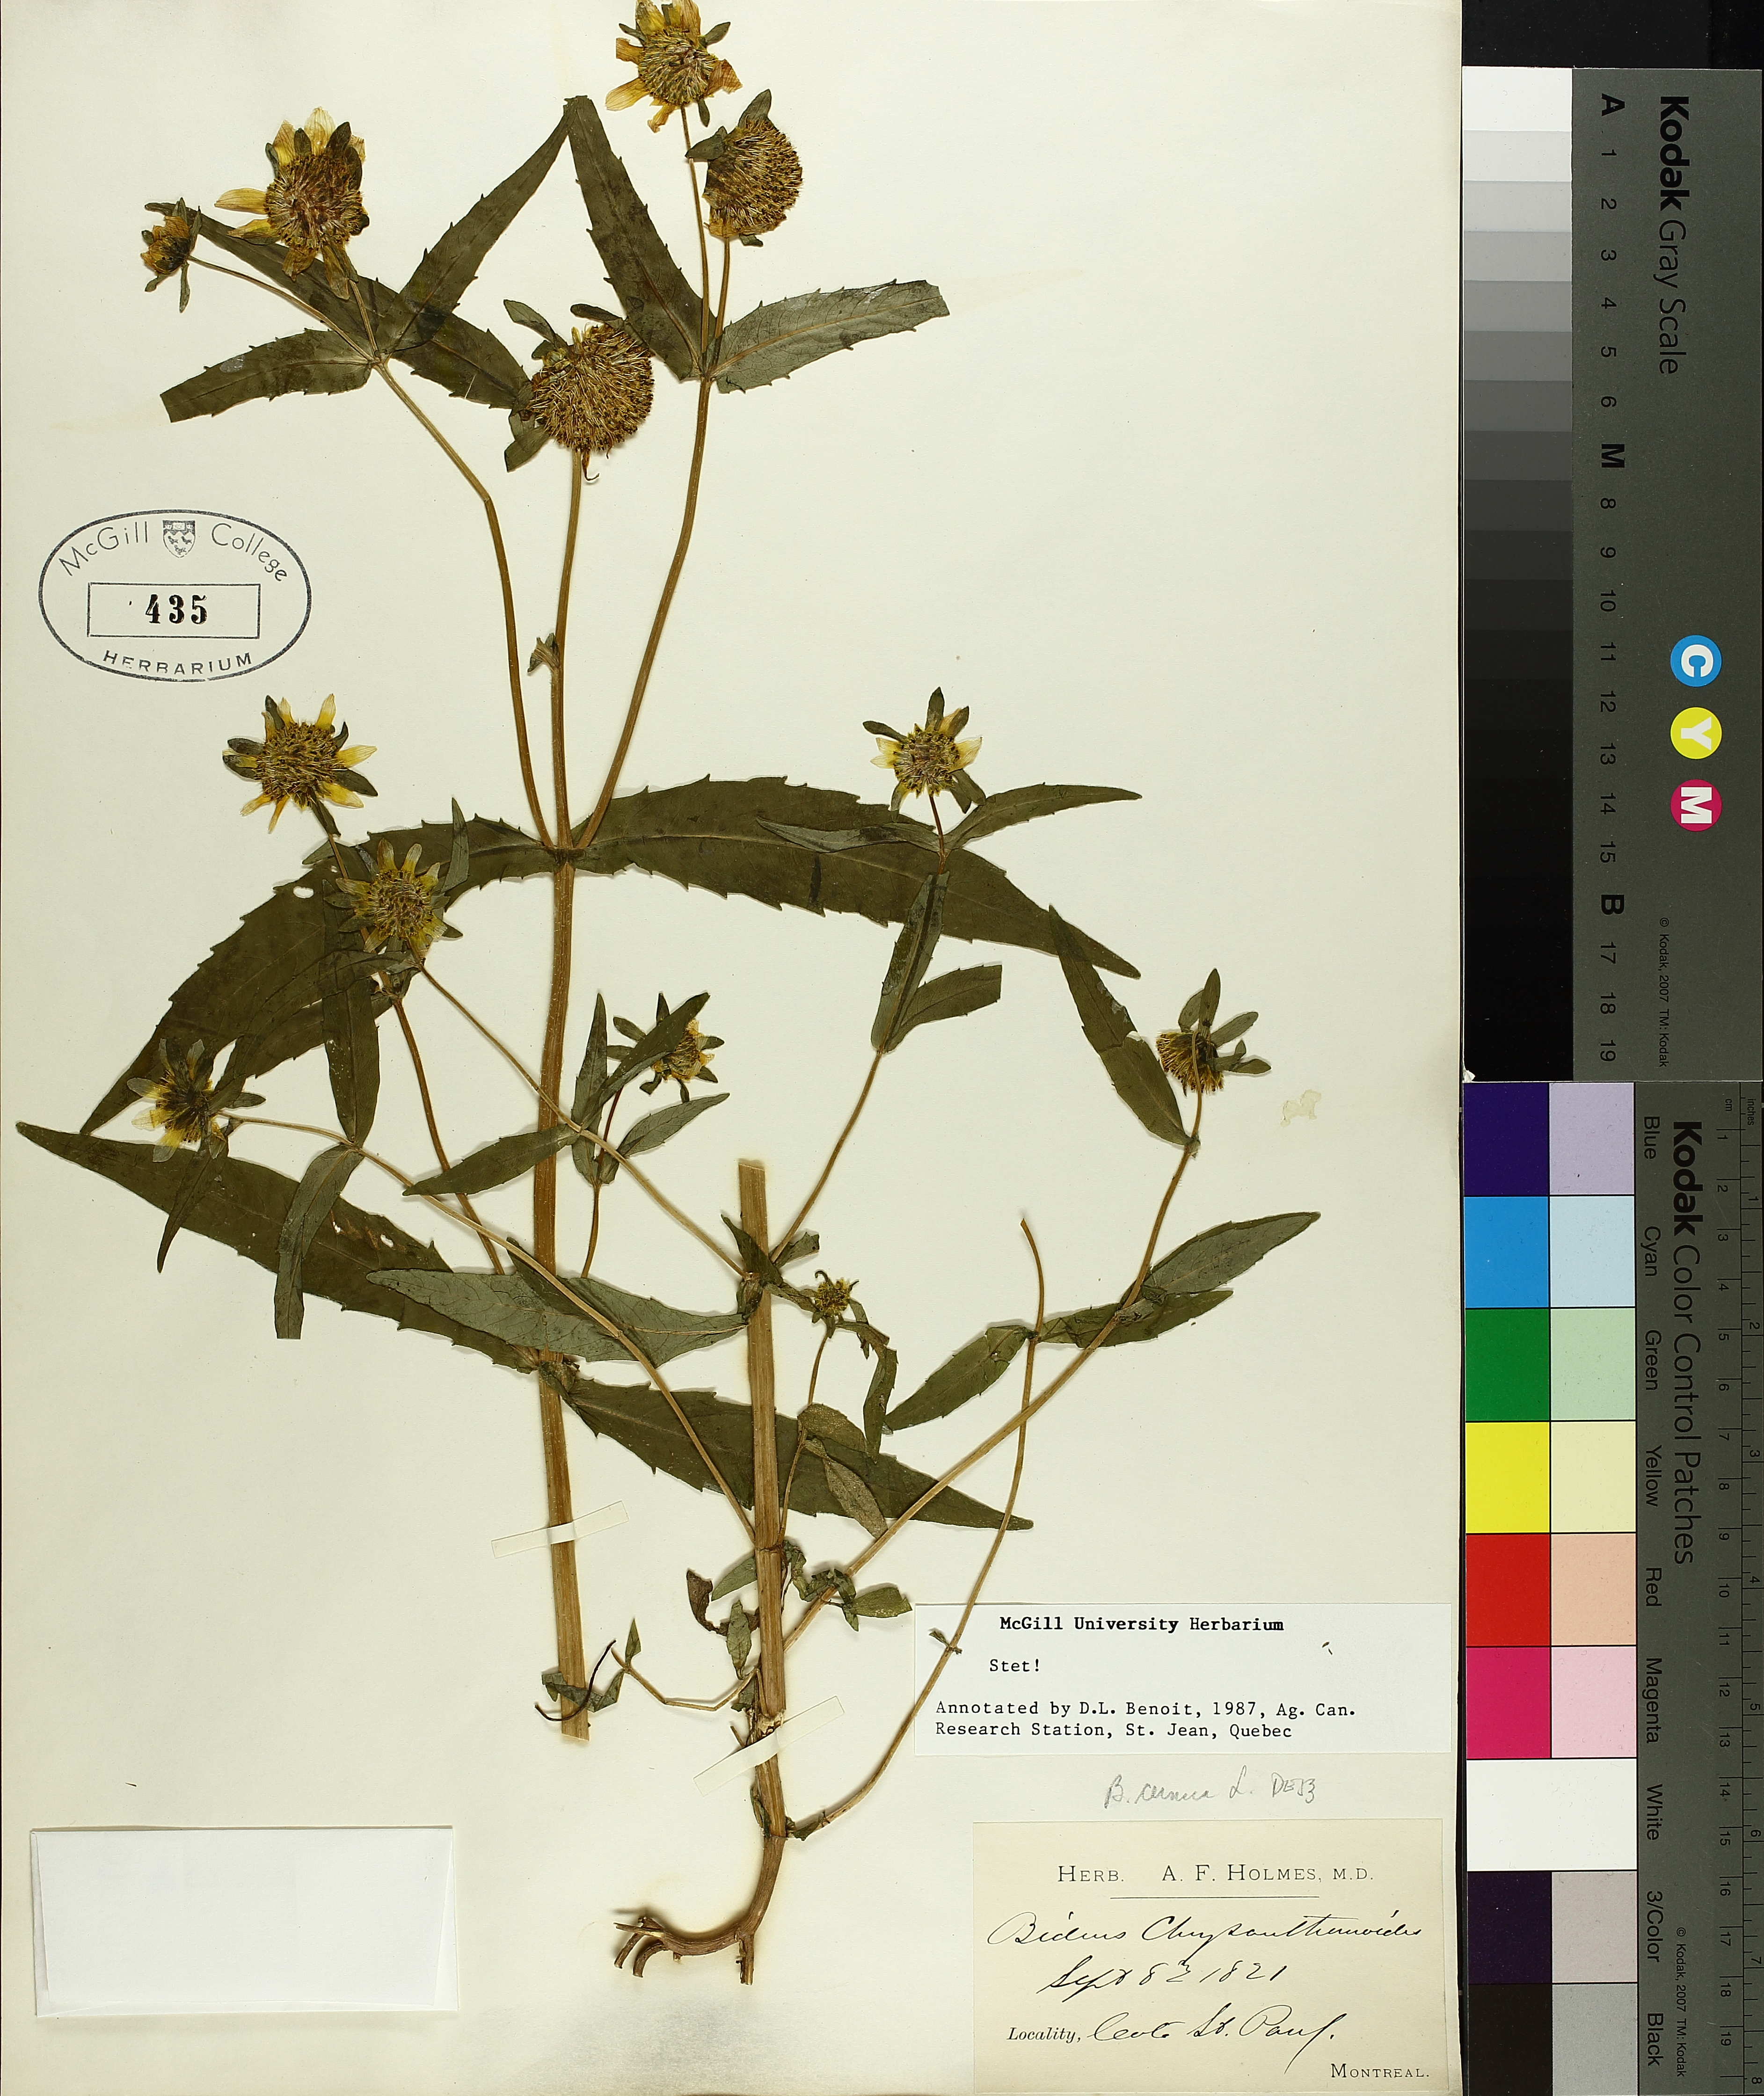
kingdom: Plantae
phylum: Tracheophyta
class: Magnoliopsida
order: Asterales
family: Asteraceae
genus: Bidens
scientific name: Bidens cernua
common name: Nodding bur-marigold
